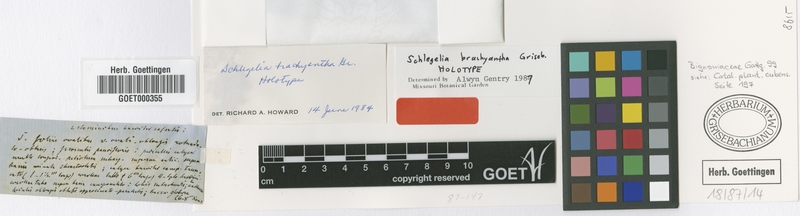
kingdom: Plantae
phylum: Tracheophyta
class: Magnoliopsida
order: Lamiales
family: Schlegeliaceae
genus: Schlegelia
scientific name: Schlegelia brachyantha
